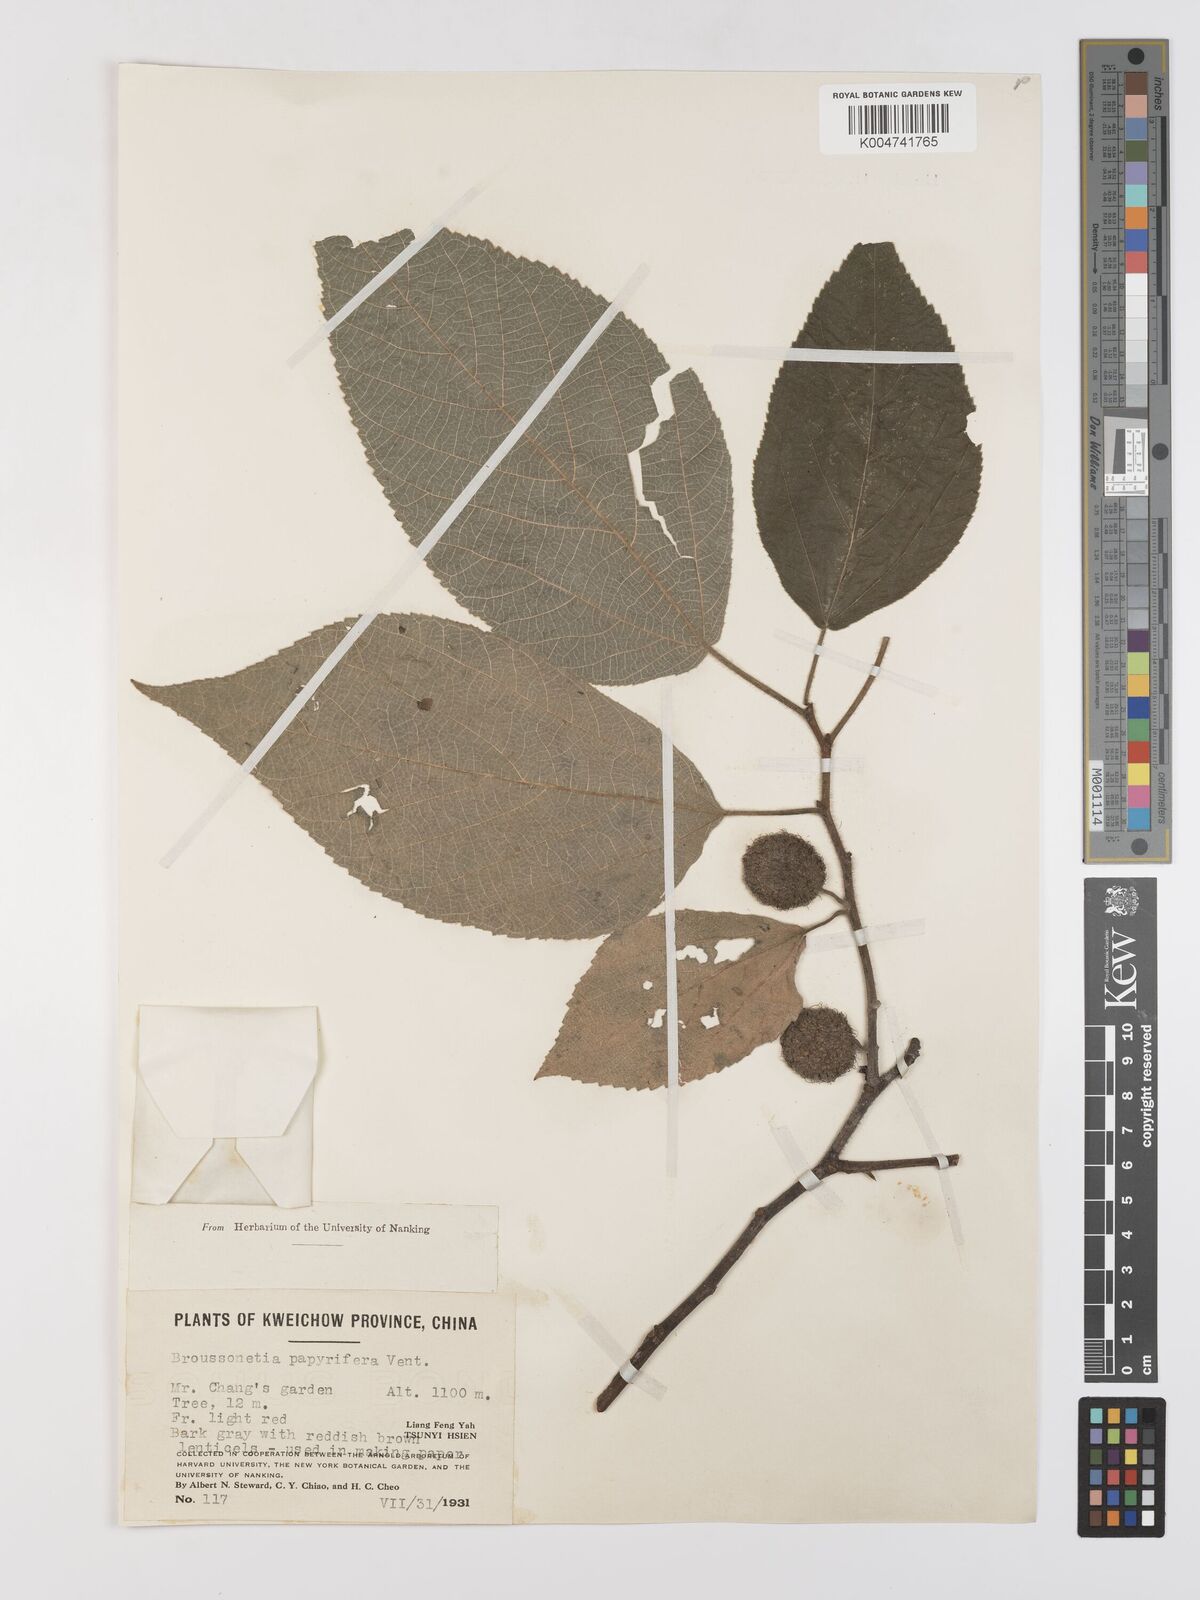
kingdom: Plantae
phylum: Tracheophyta
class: Magnoliopsida
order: Rosales
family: Moraceae
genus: Broussonetia
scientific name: Broussonetia papyrifera
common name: Paper mulberry
